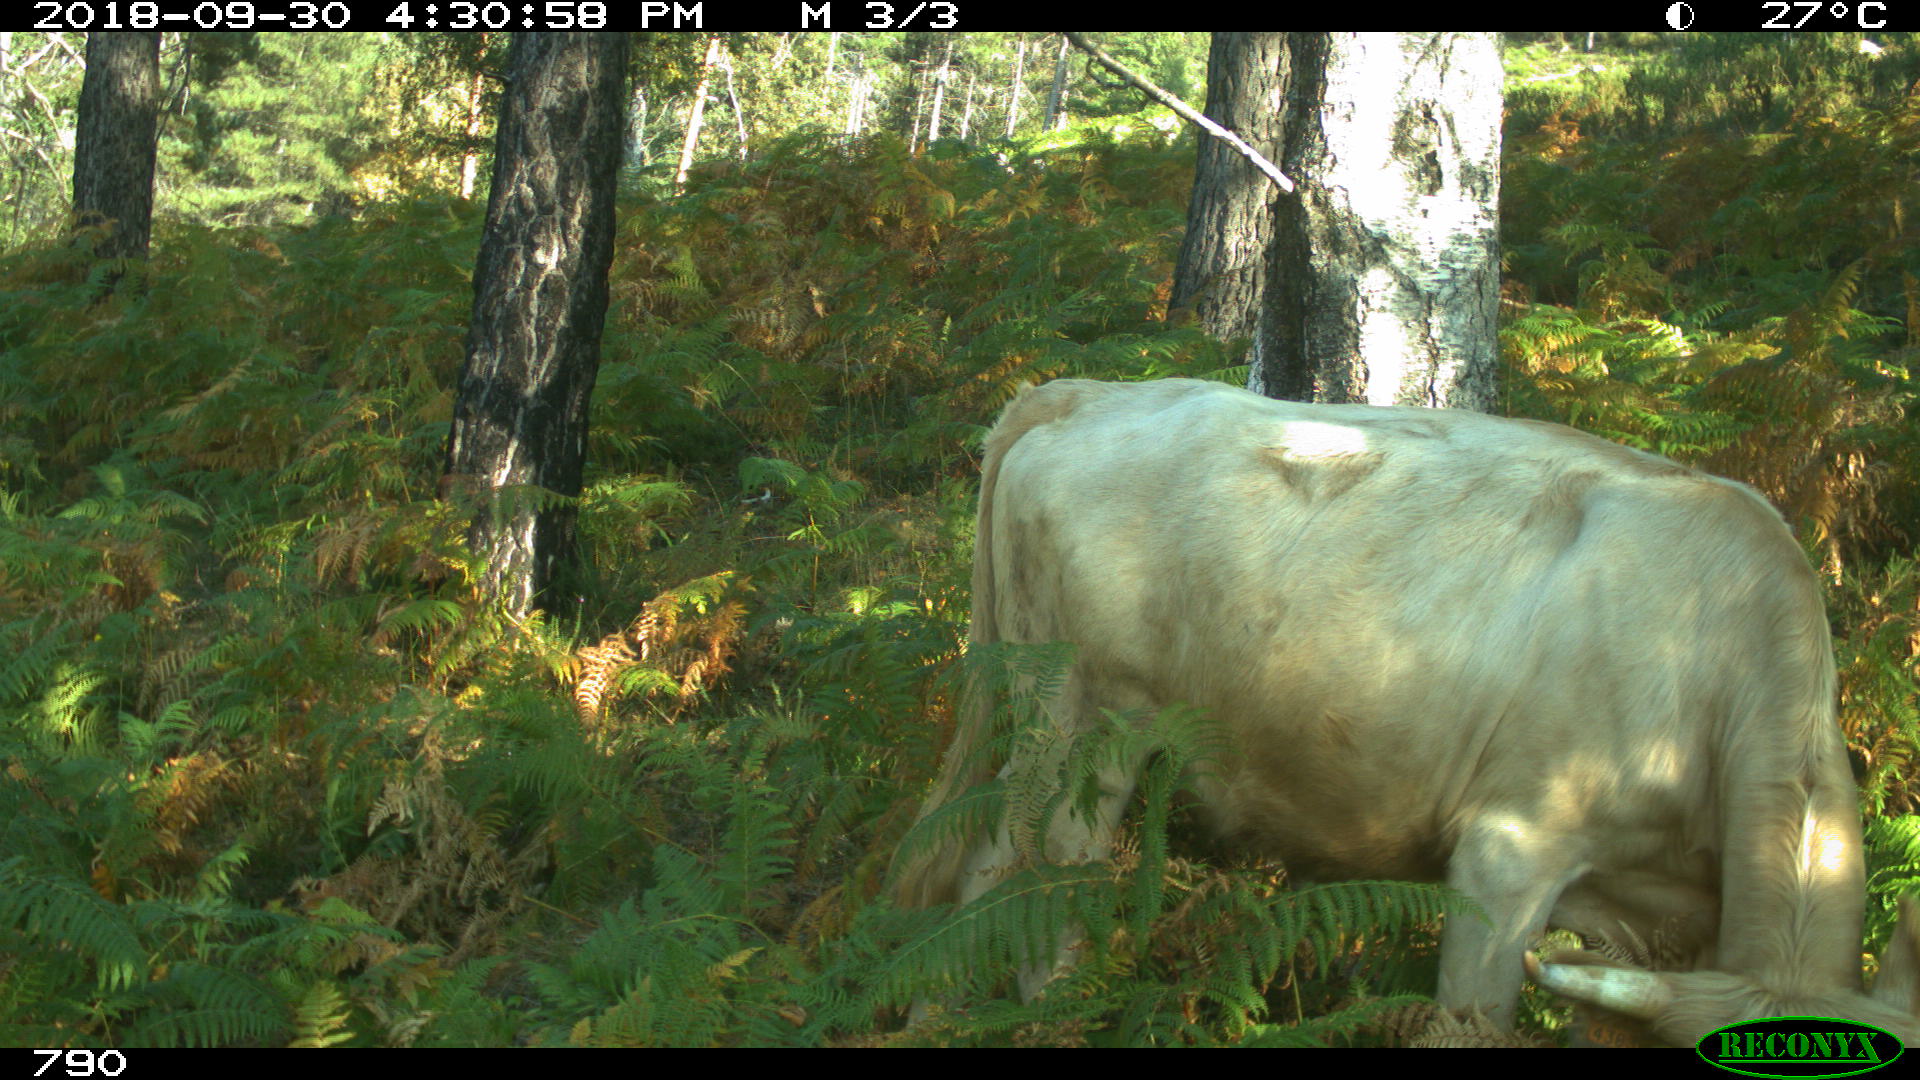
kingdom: Animalia
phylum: Chordata
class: Mammalia
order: Artiodactyla
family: Bovidae
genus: Bos
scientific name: Bos taurus
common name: Domesticated cattle
